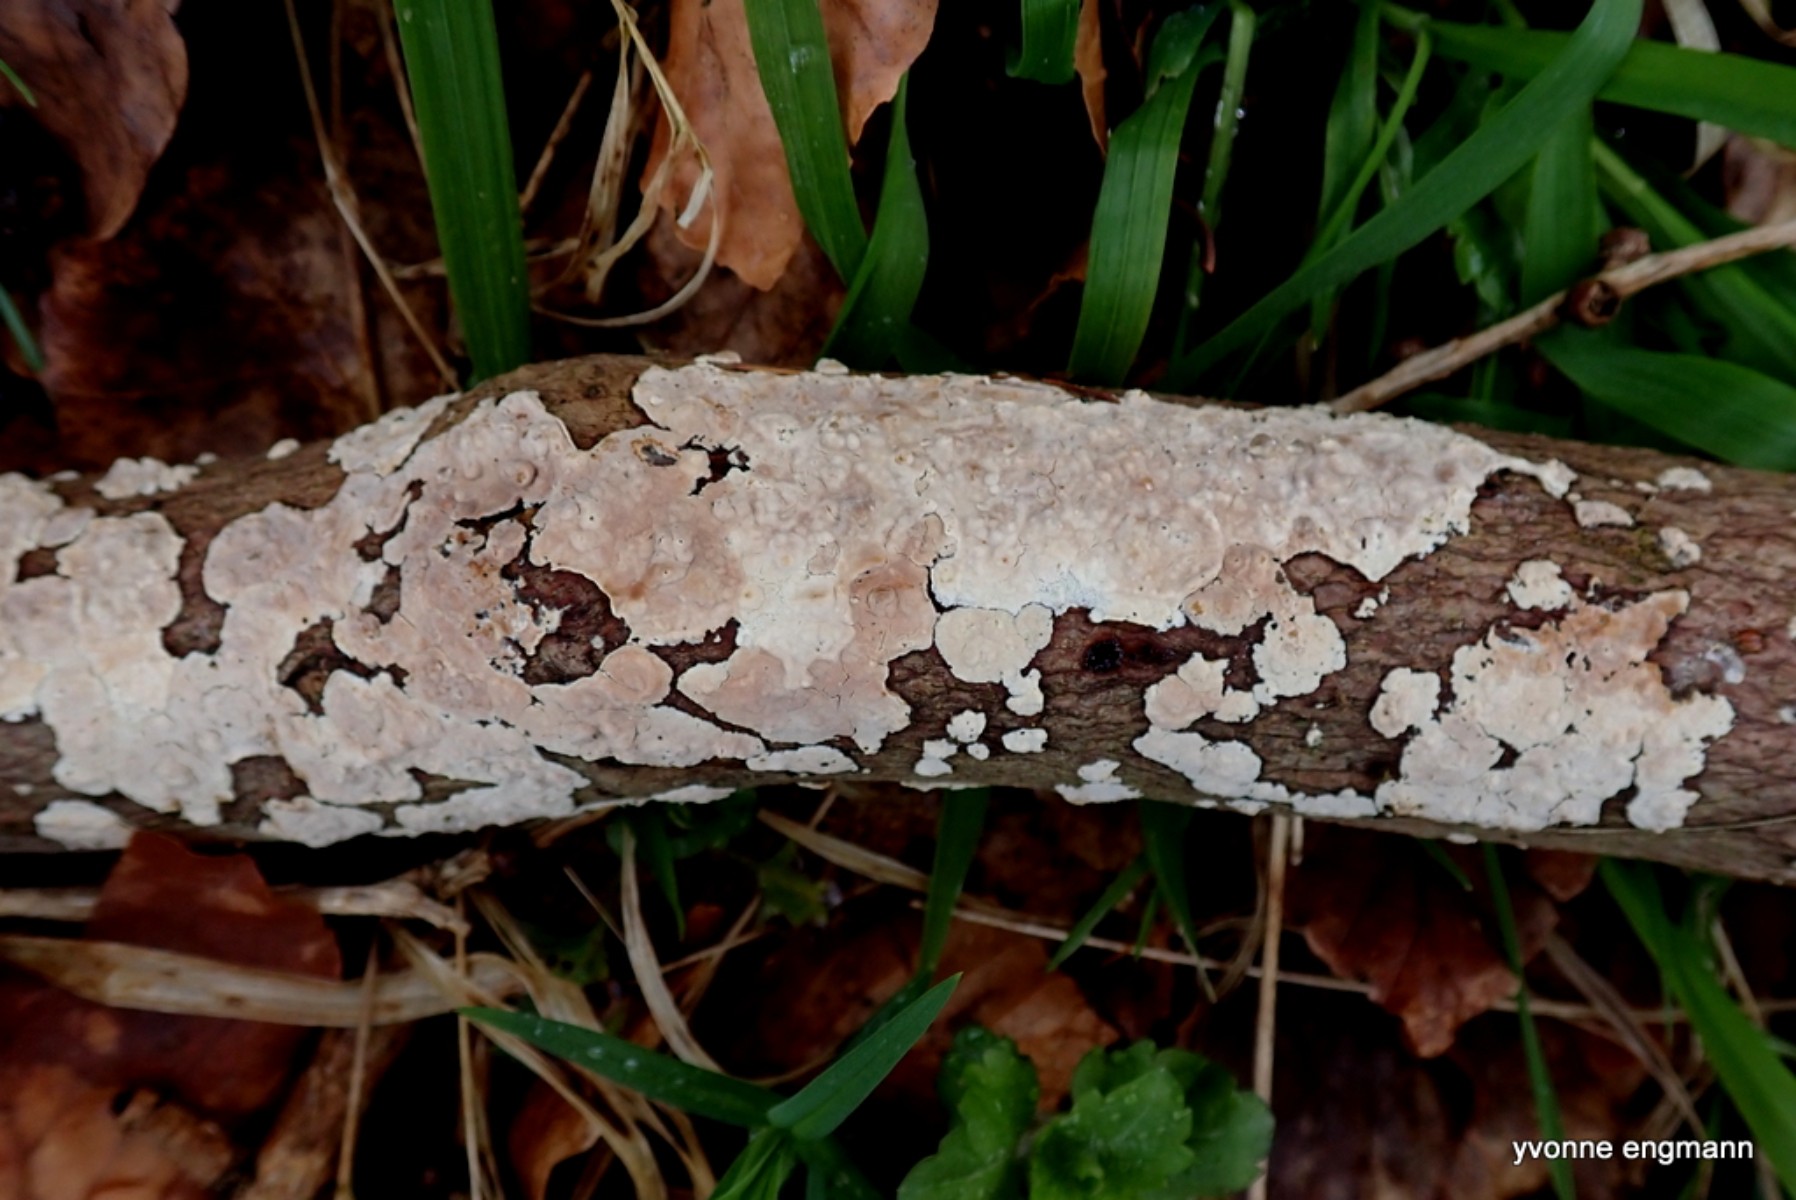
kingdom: Fungi
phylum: Basidiomycota
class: Agaricomycetes
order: Agaricales
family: Physalacriaceae
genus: Cylindrobasidium
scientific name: Cylindrobasidium evolvens
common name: sprækkehinde
